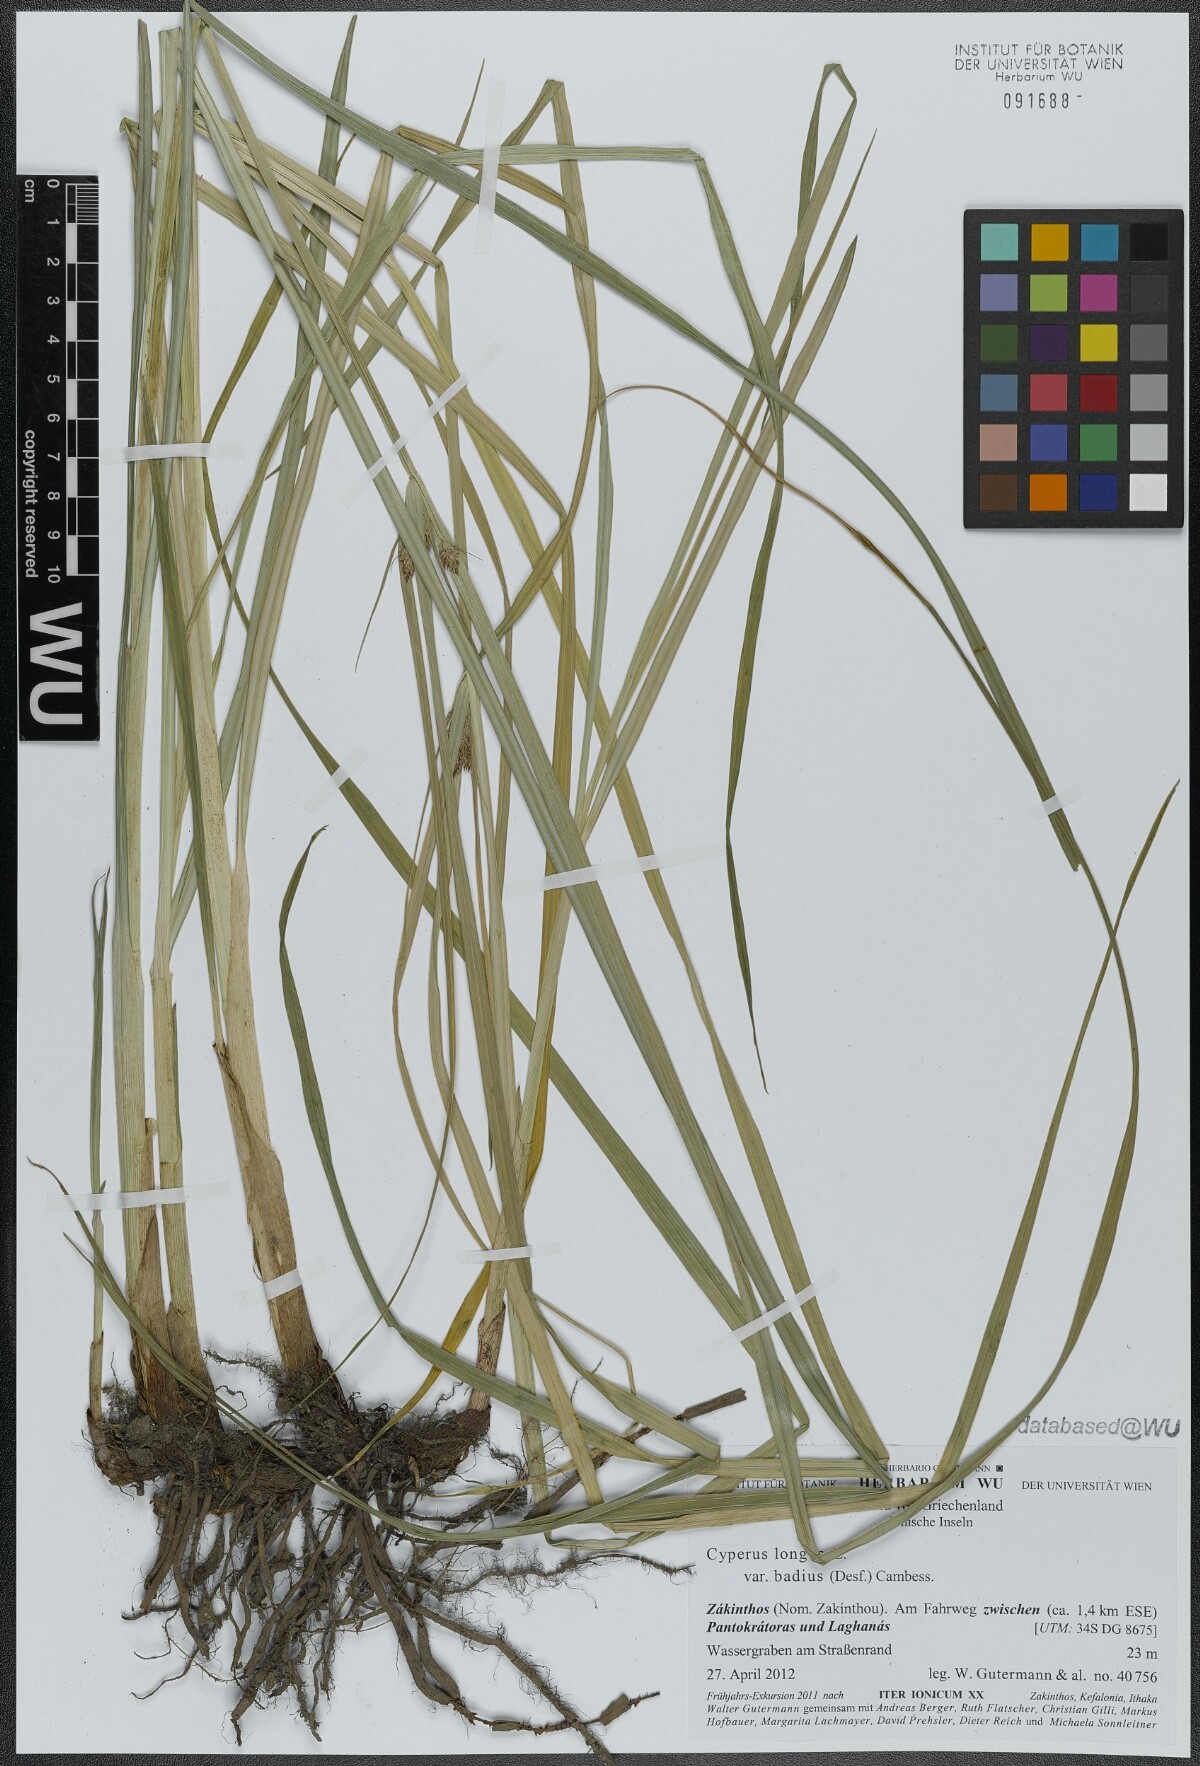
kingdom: Plantae
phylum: Tracheophyta
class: Liliopsida
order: Poales
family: Cyperaceae
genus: Cyperus
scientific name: Cyperus longus
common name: Galingale
